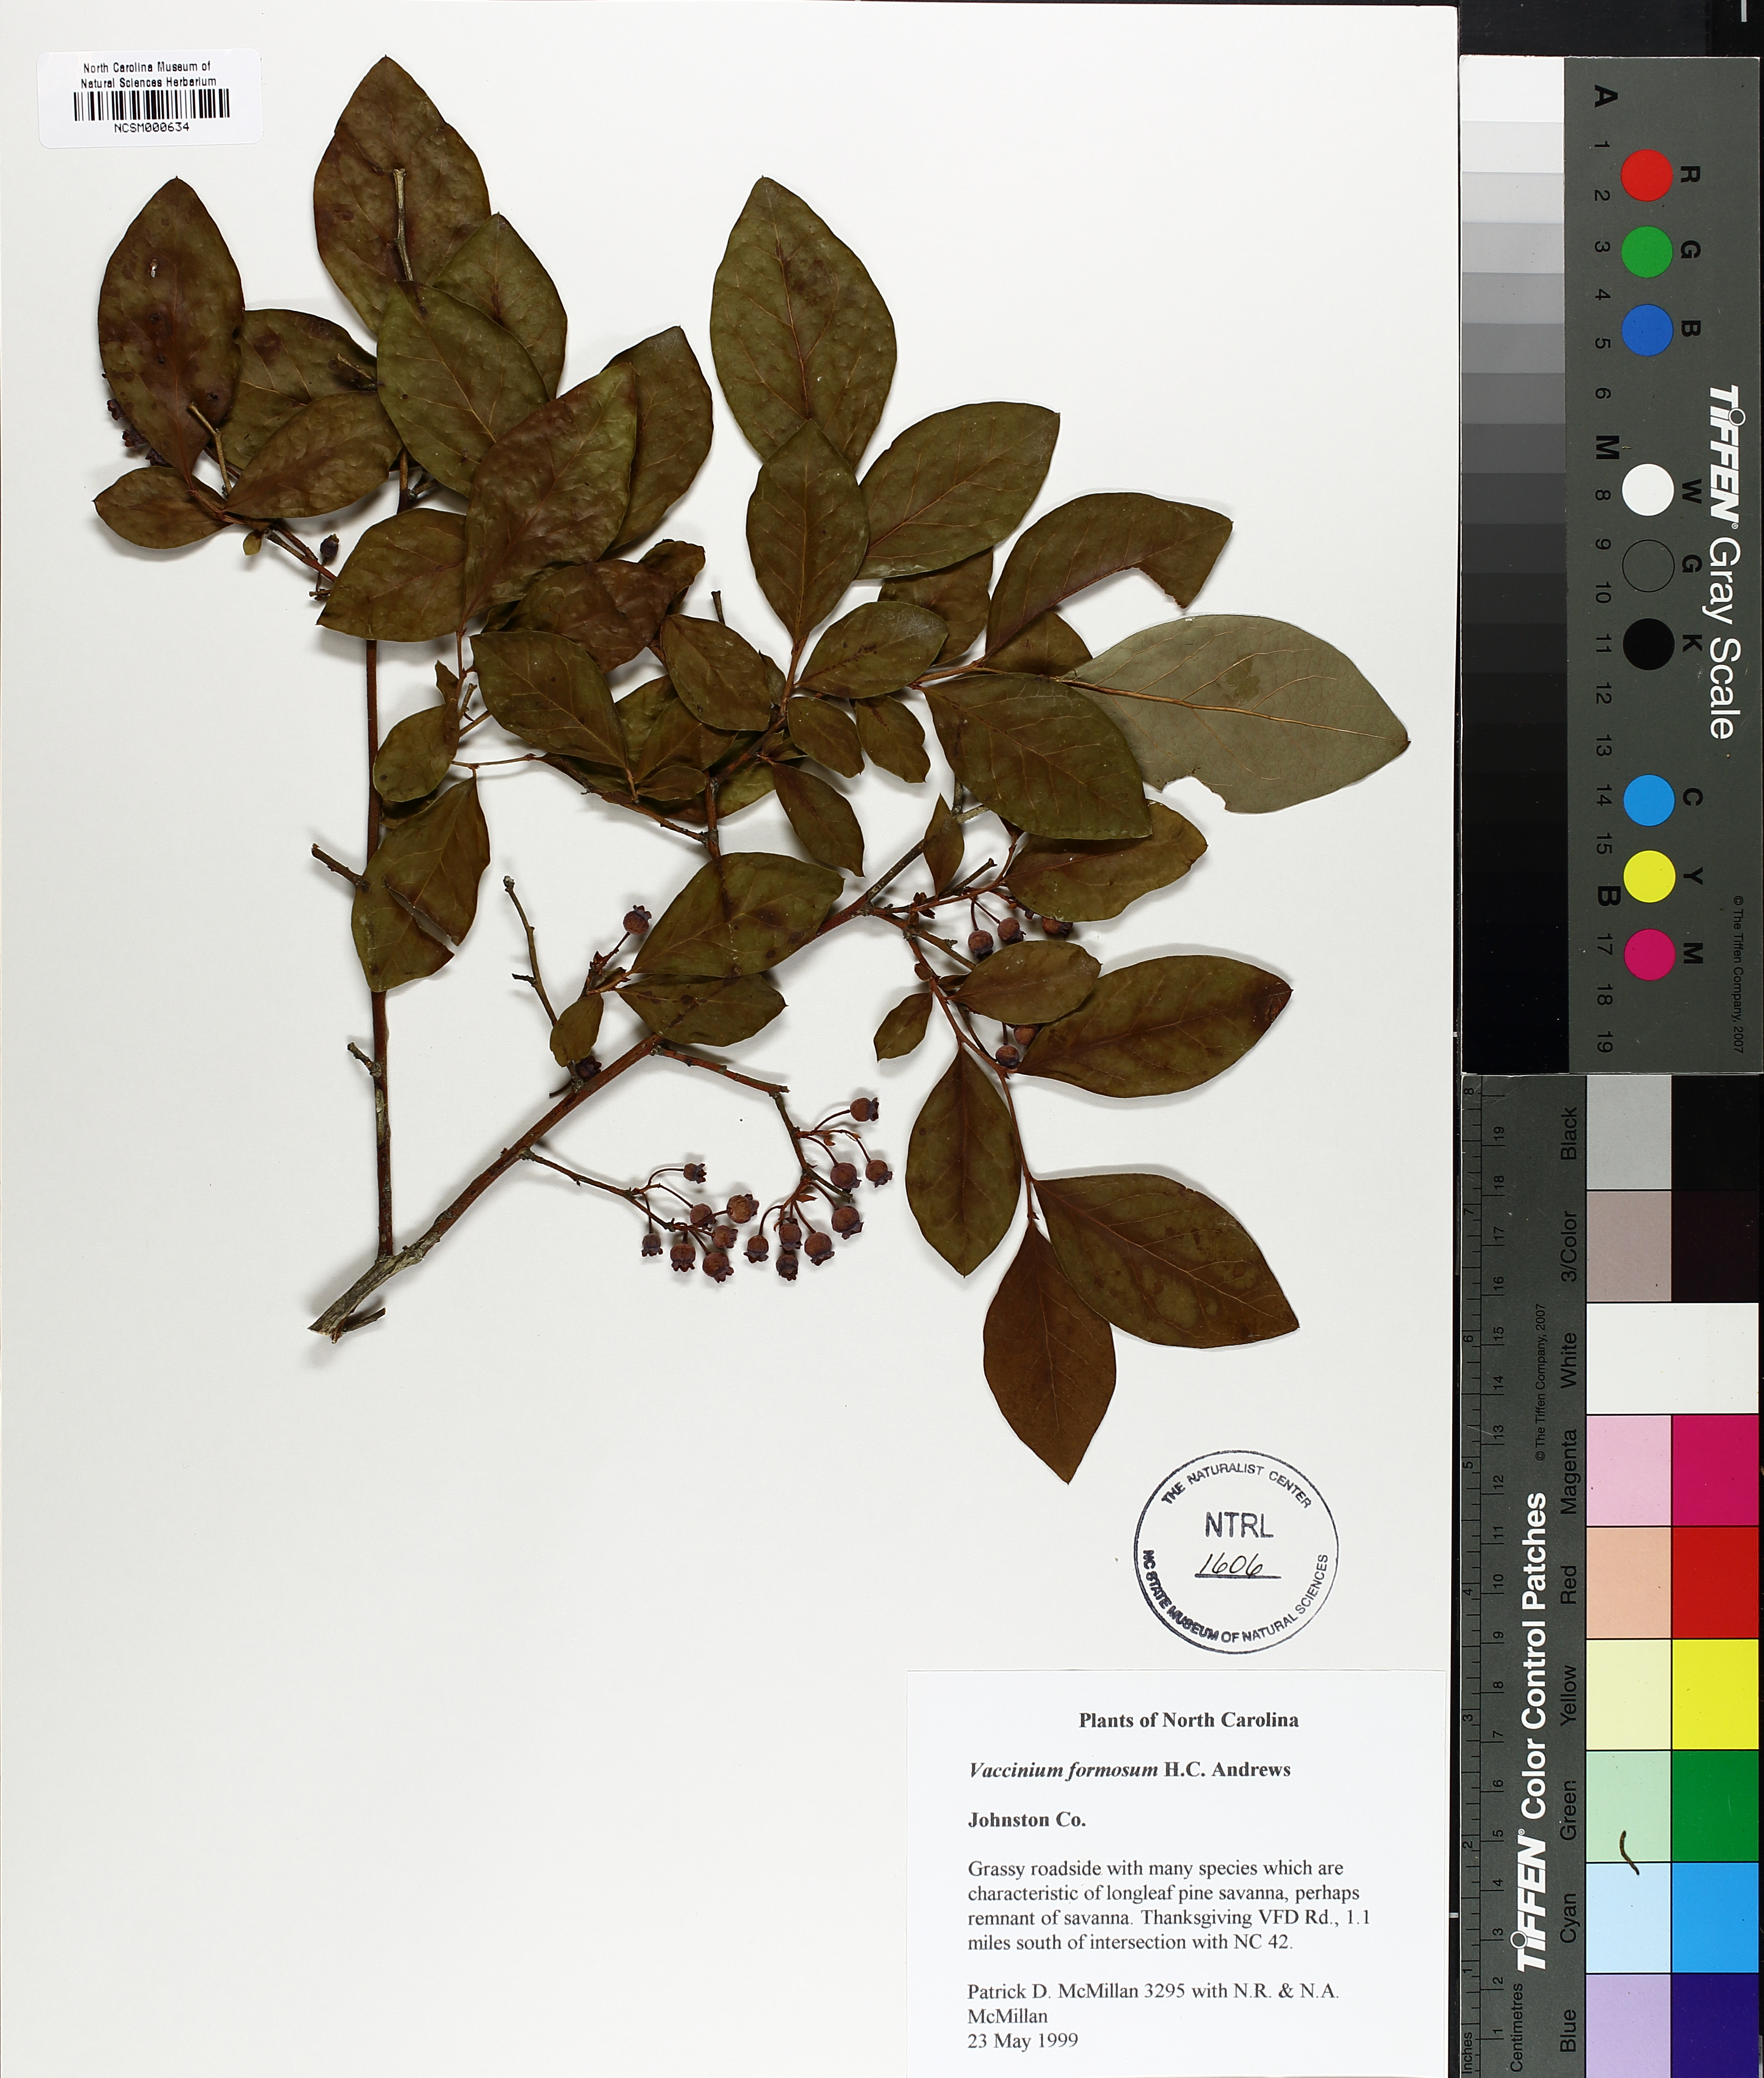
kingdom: Plantae
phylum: Tracheophyta
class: Magnoliopsida
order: Ericales
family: Ericaceae
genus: Vaccinium
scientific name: Vaccinium corymbosum
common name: Blueberry
